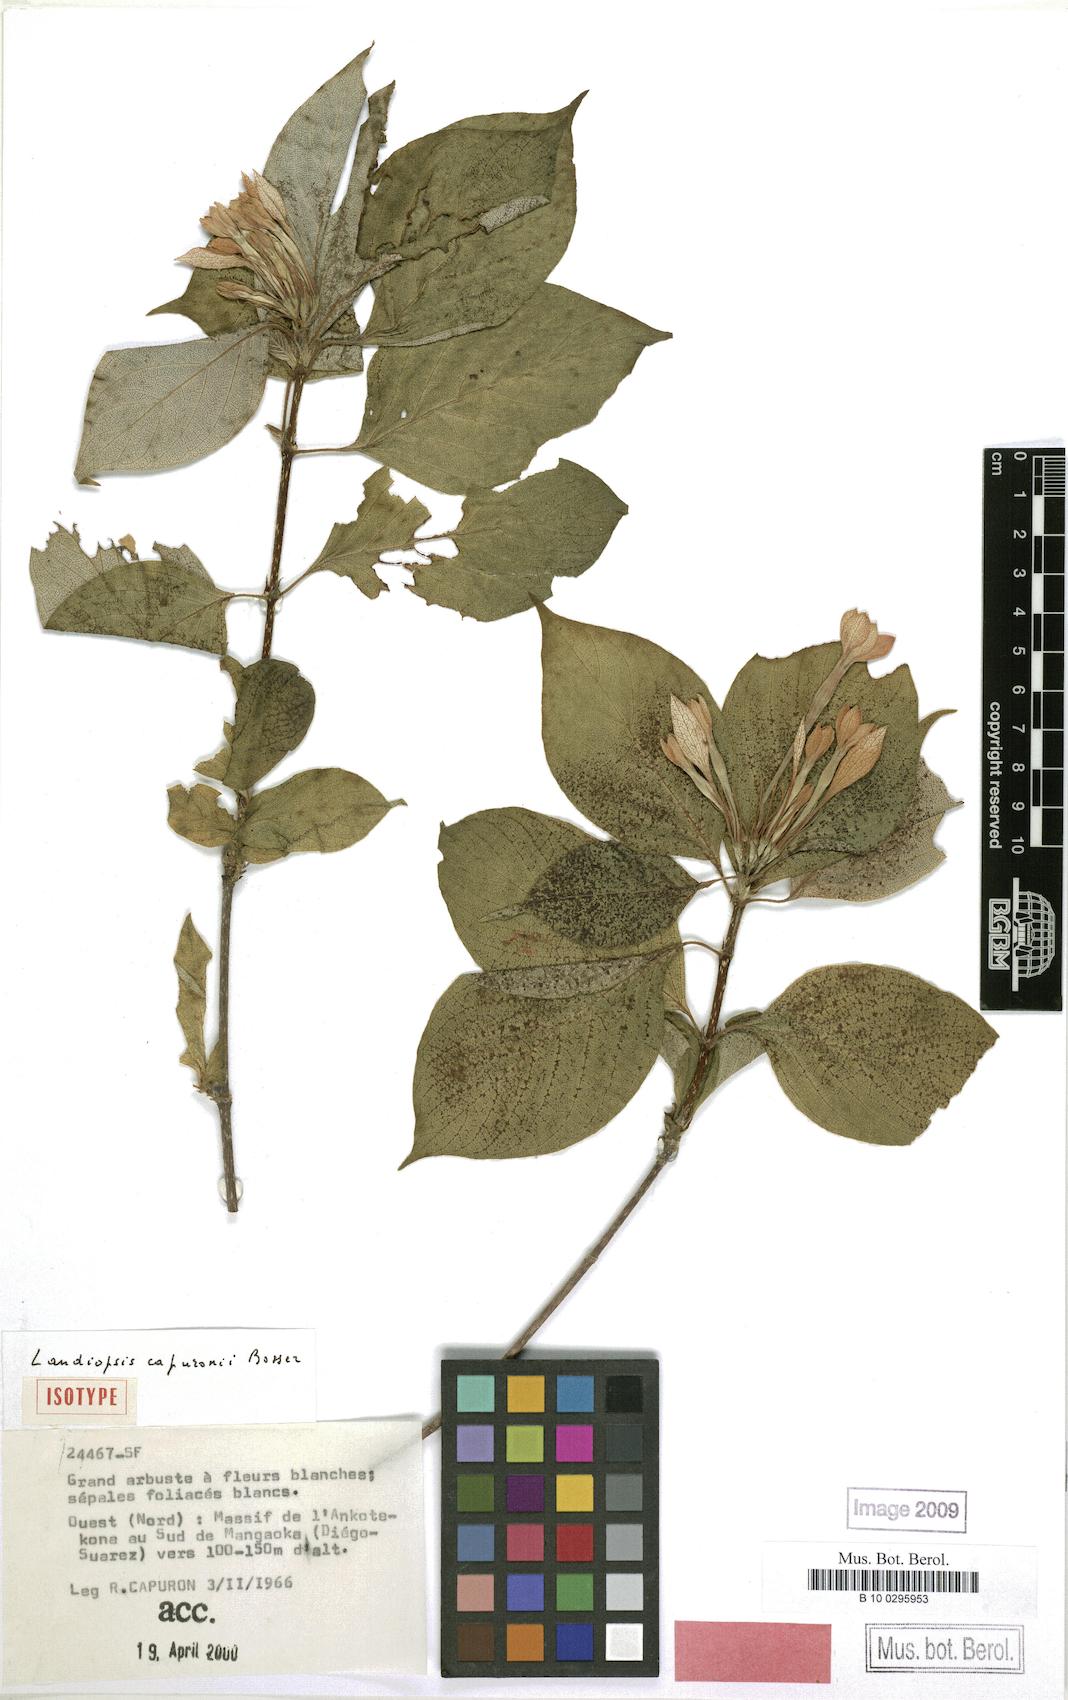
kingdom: Plantae
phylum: Tracheophyta
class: Magnoliopsida
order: Gentianales
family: Rubiaceae
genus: Landiopsis
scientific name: Landiopsis capuronii
